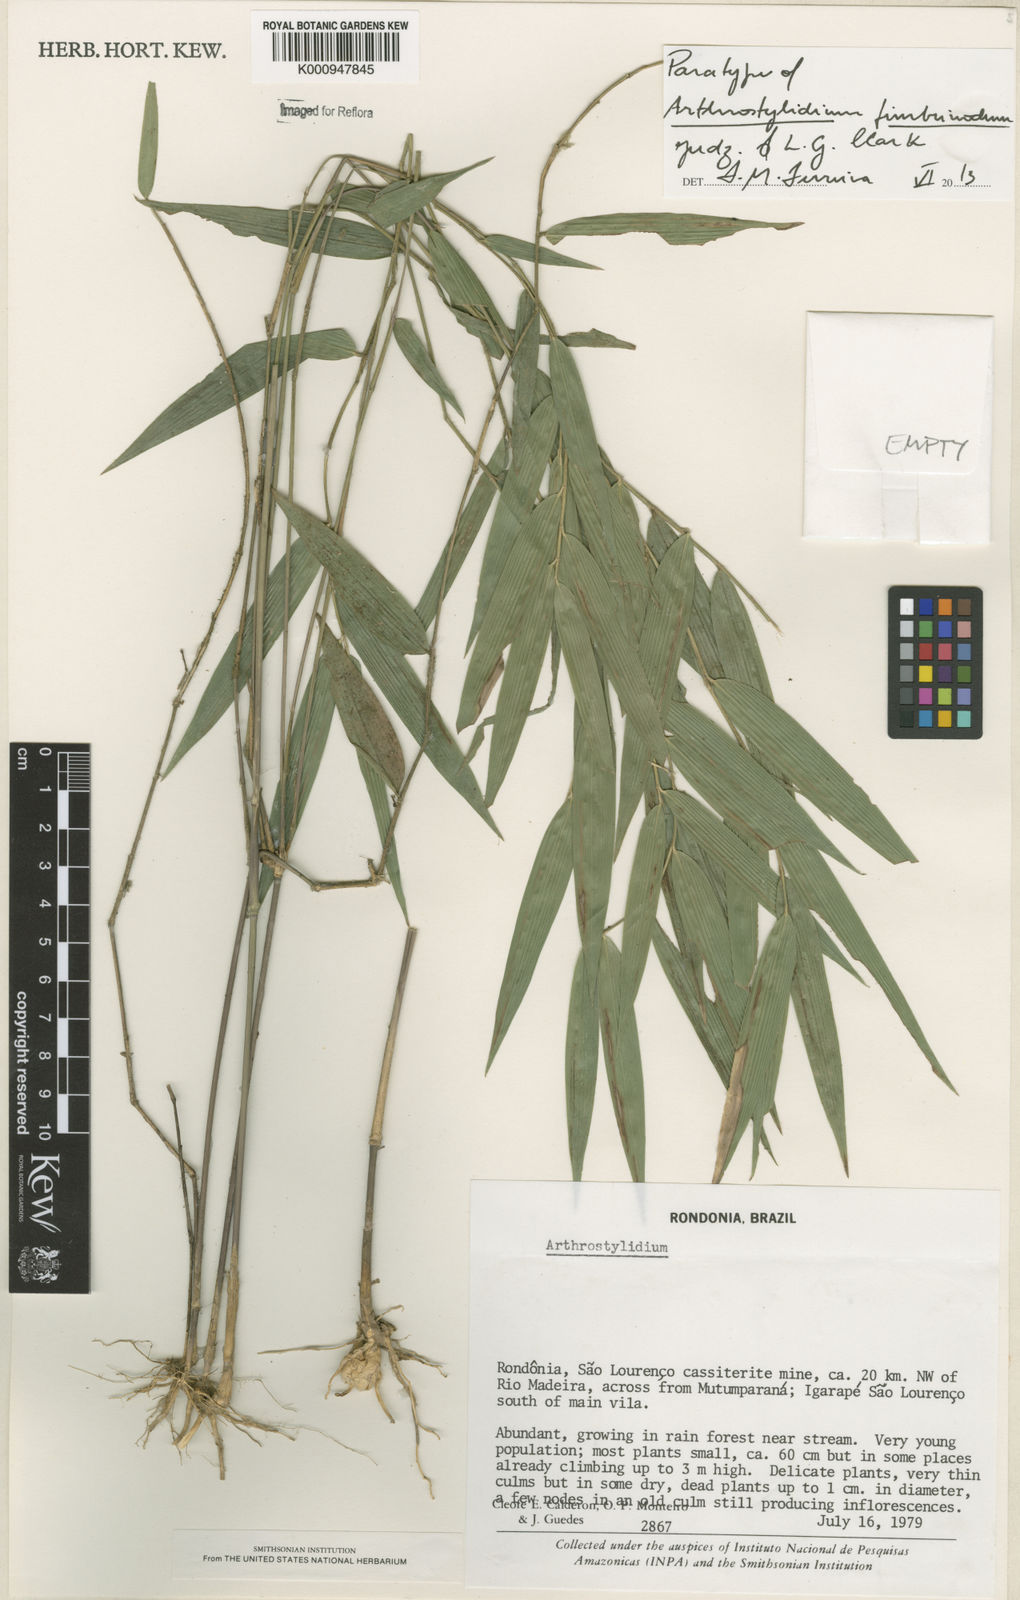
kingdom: Plantae
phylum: Tracheophyta
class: Liliopsida
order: Poales
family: Poaceae
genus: Arthrostylidium
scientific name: Arthrostylidium fimbrinodum
